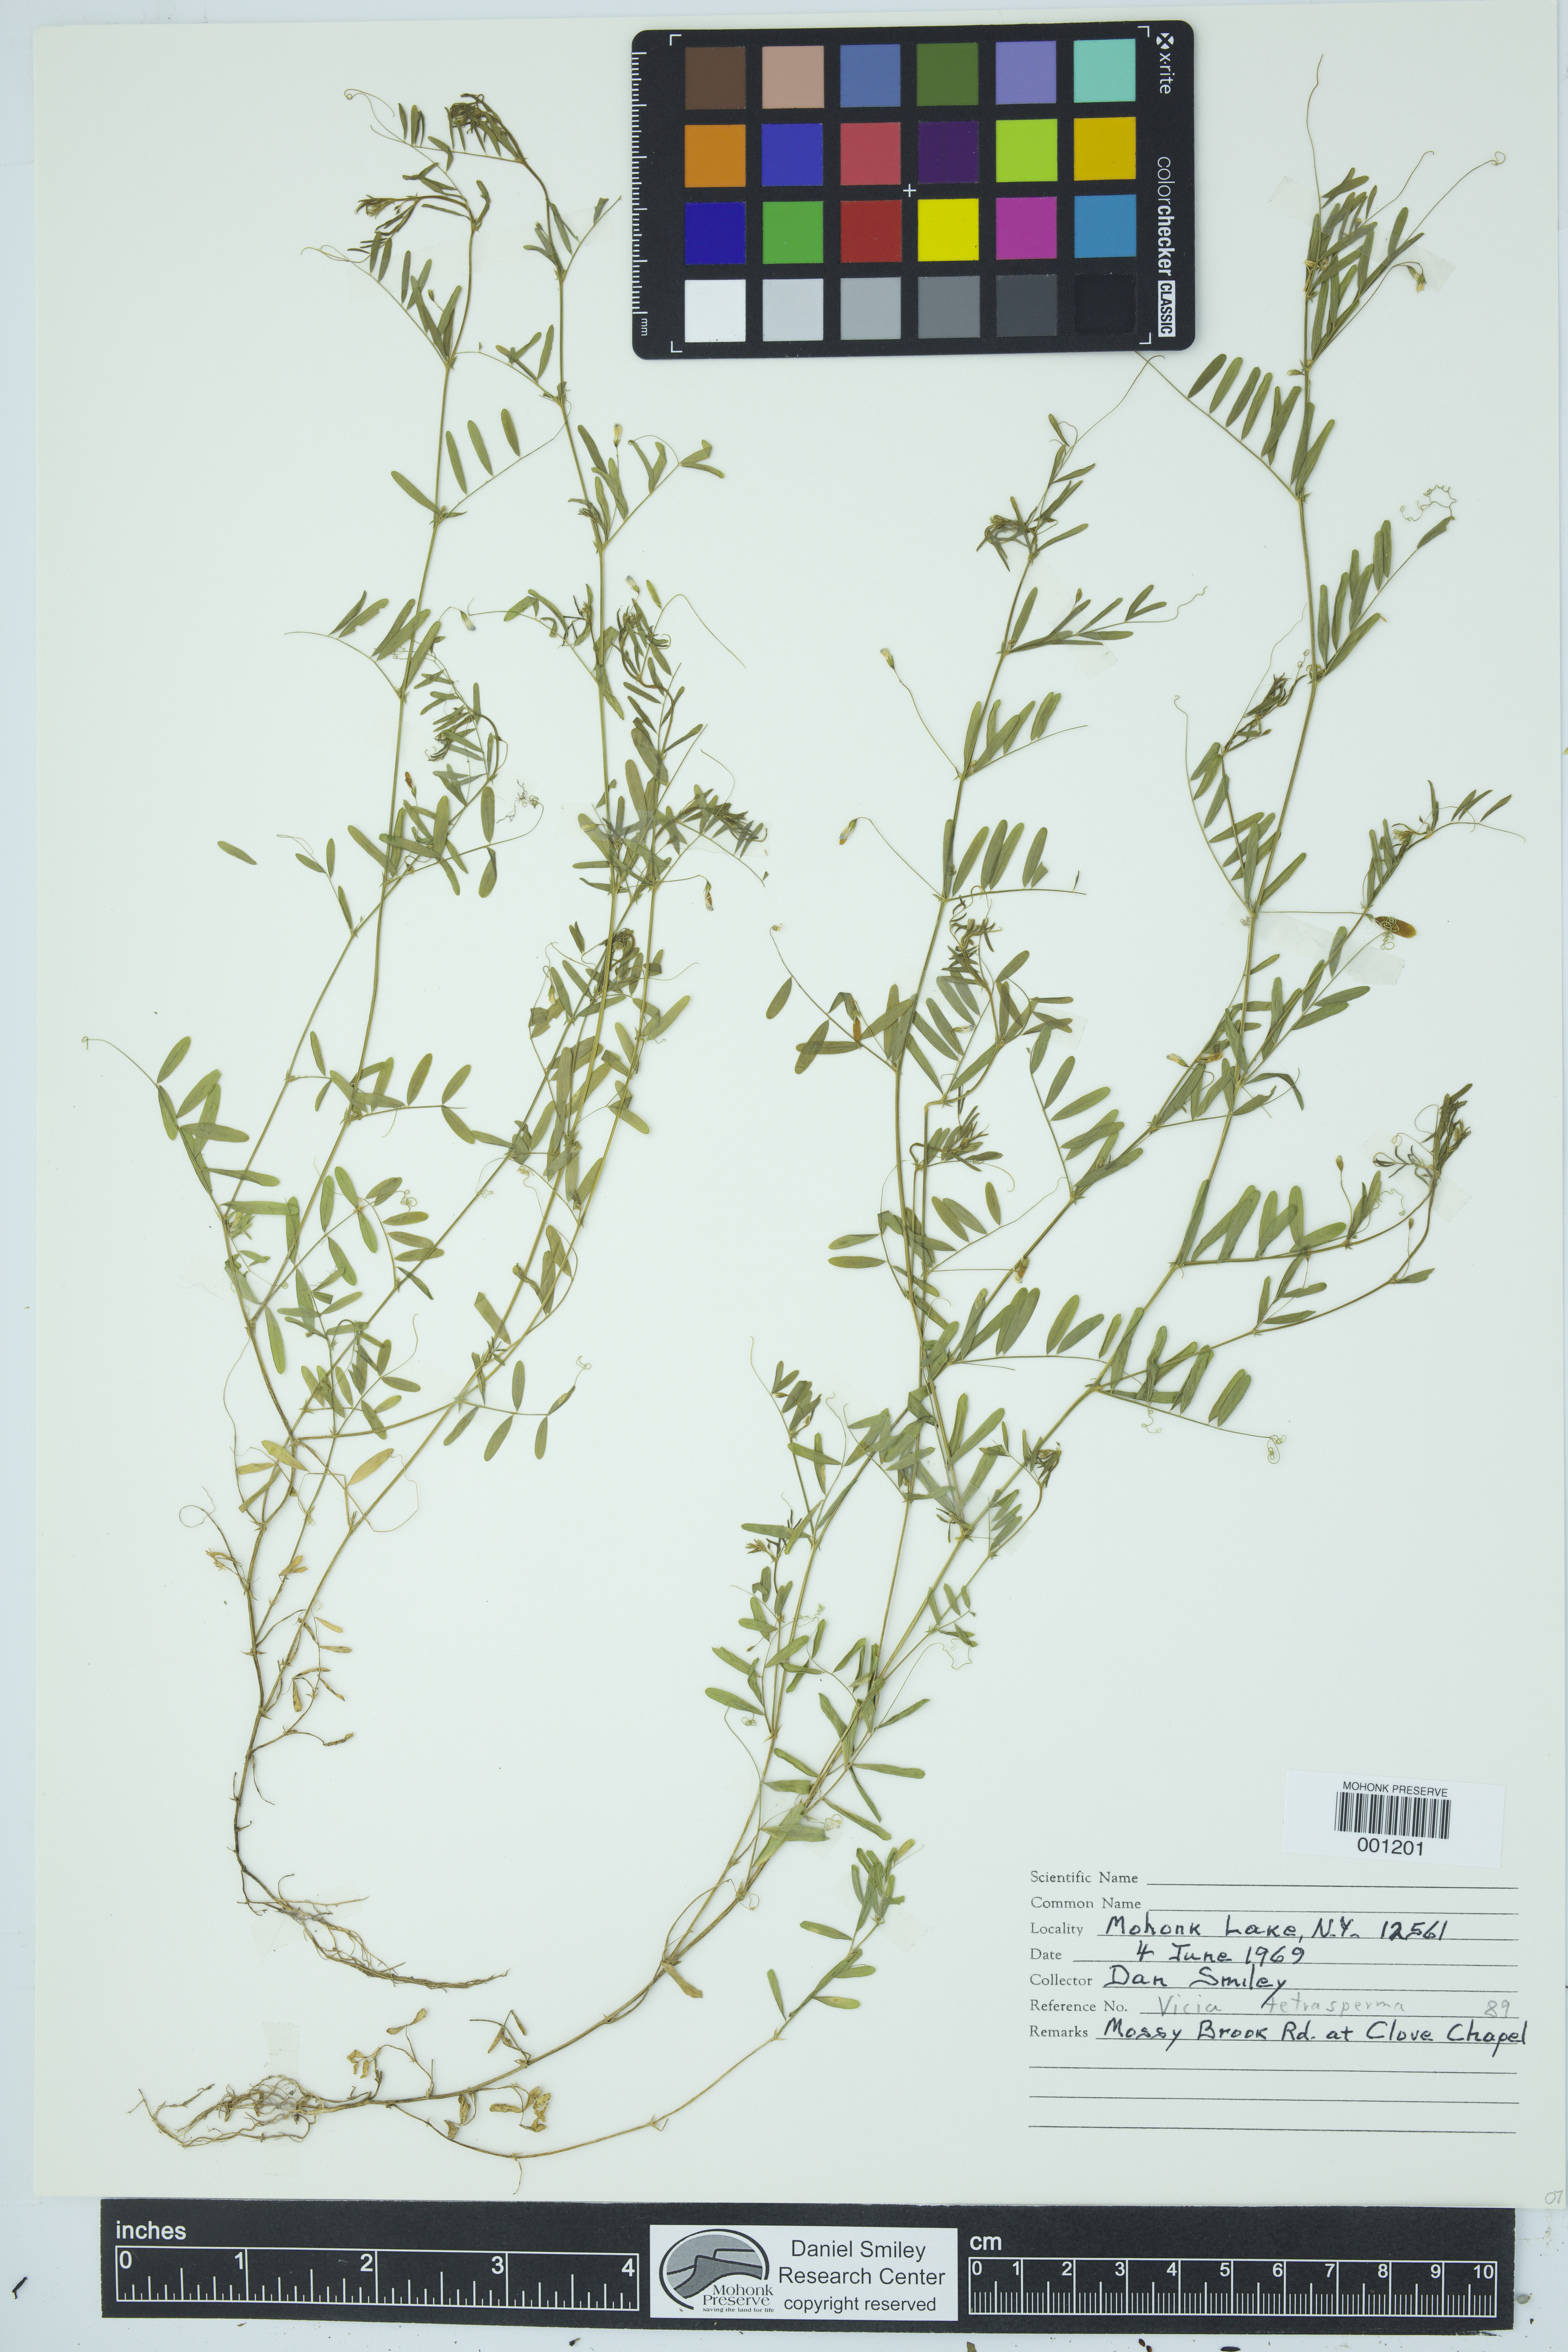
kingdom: Plantae
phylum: Tracheophyta
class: Magnoliopsida
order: Fabales
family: Fabaceae
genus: Vicia
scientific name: Vicia tetrasperma
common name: Smooth tare
